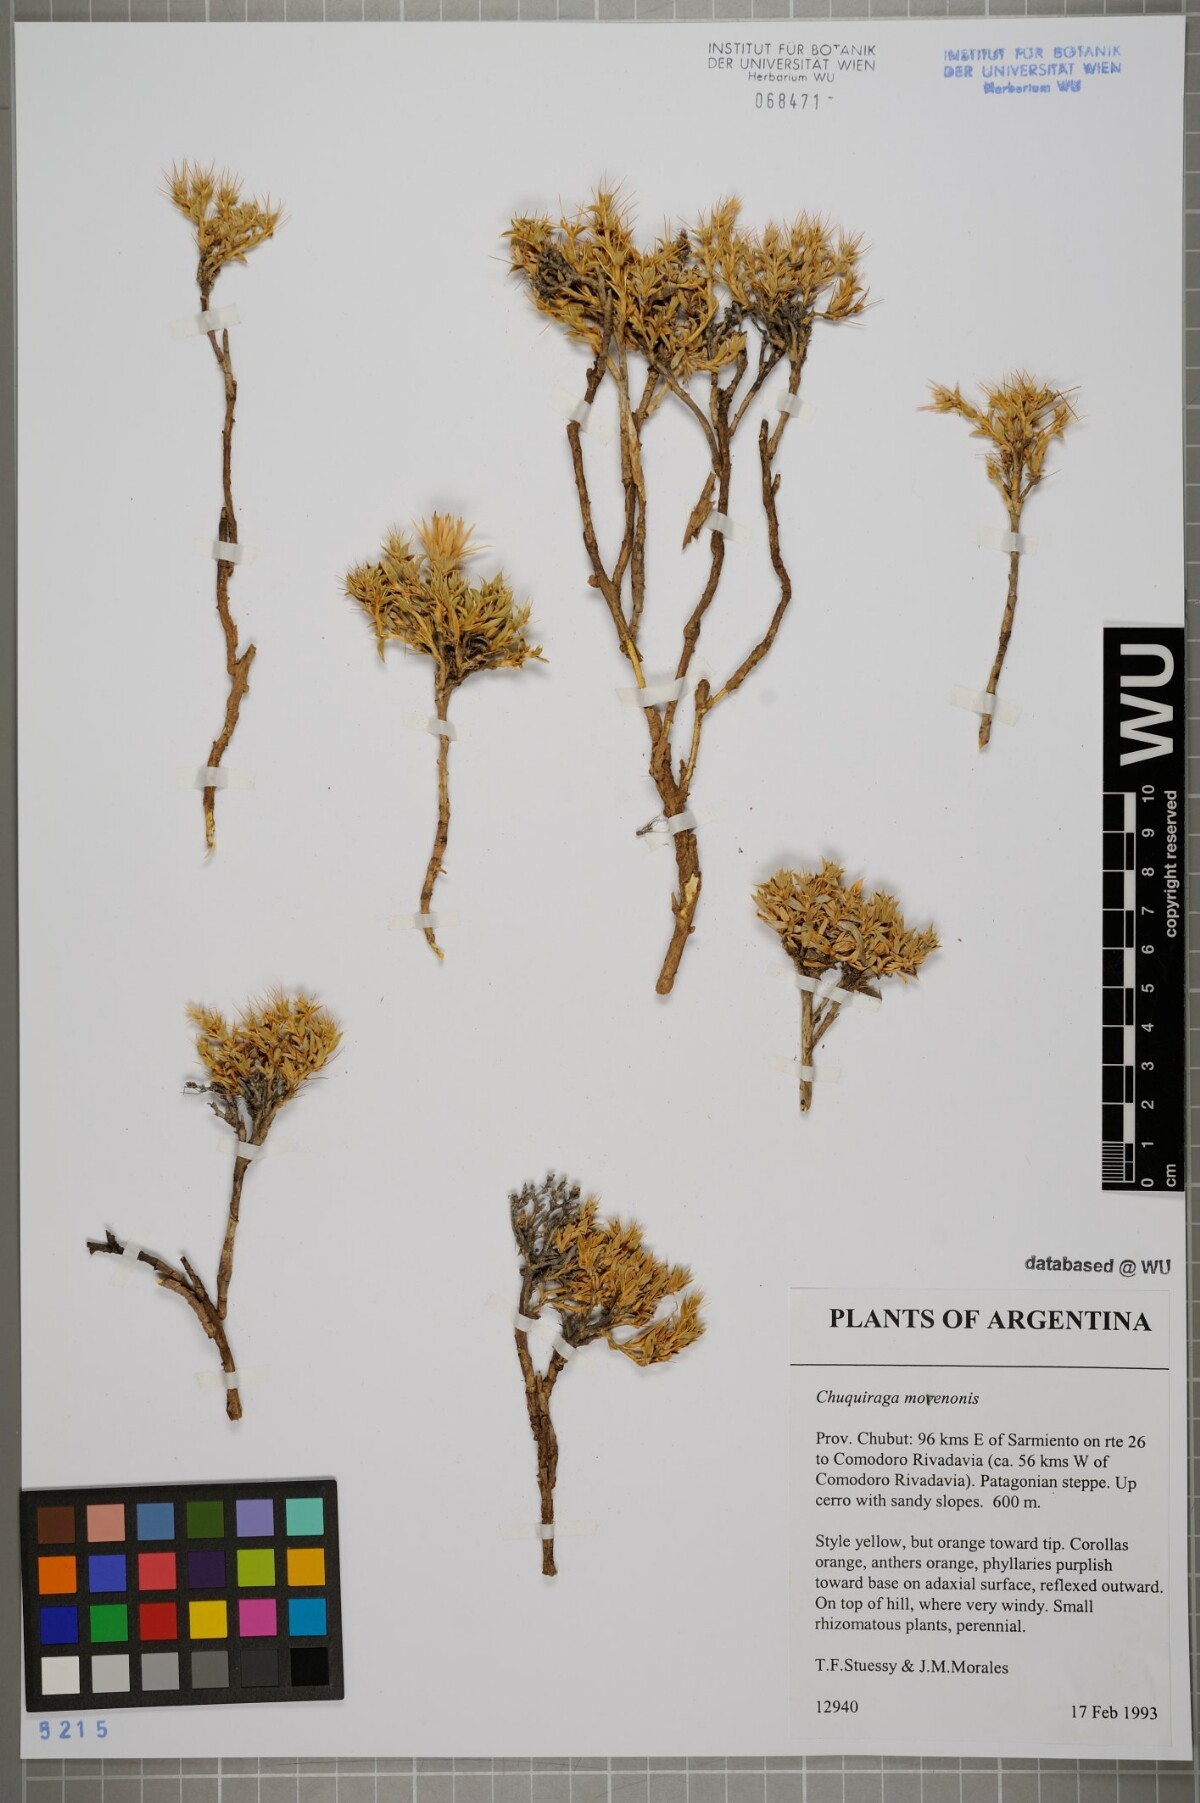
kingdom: Plantae
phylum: Tracheophyta
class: Magnoliopsida
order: Asterales
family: Asteraceae
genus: Chuquiraga
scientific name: Chuquiraga morenonis
